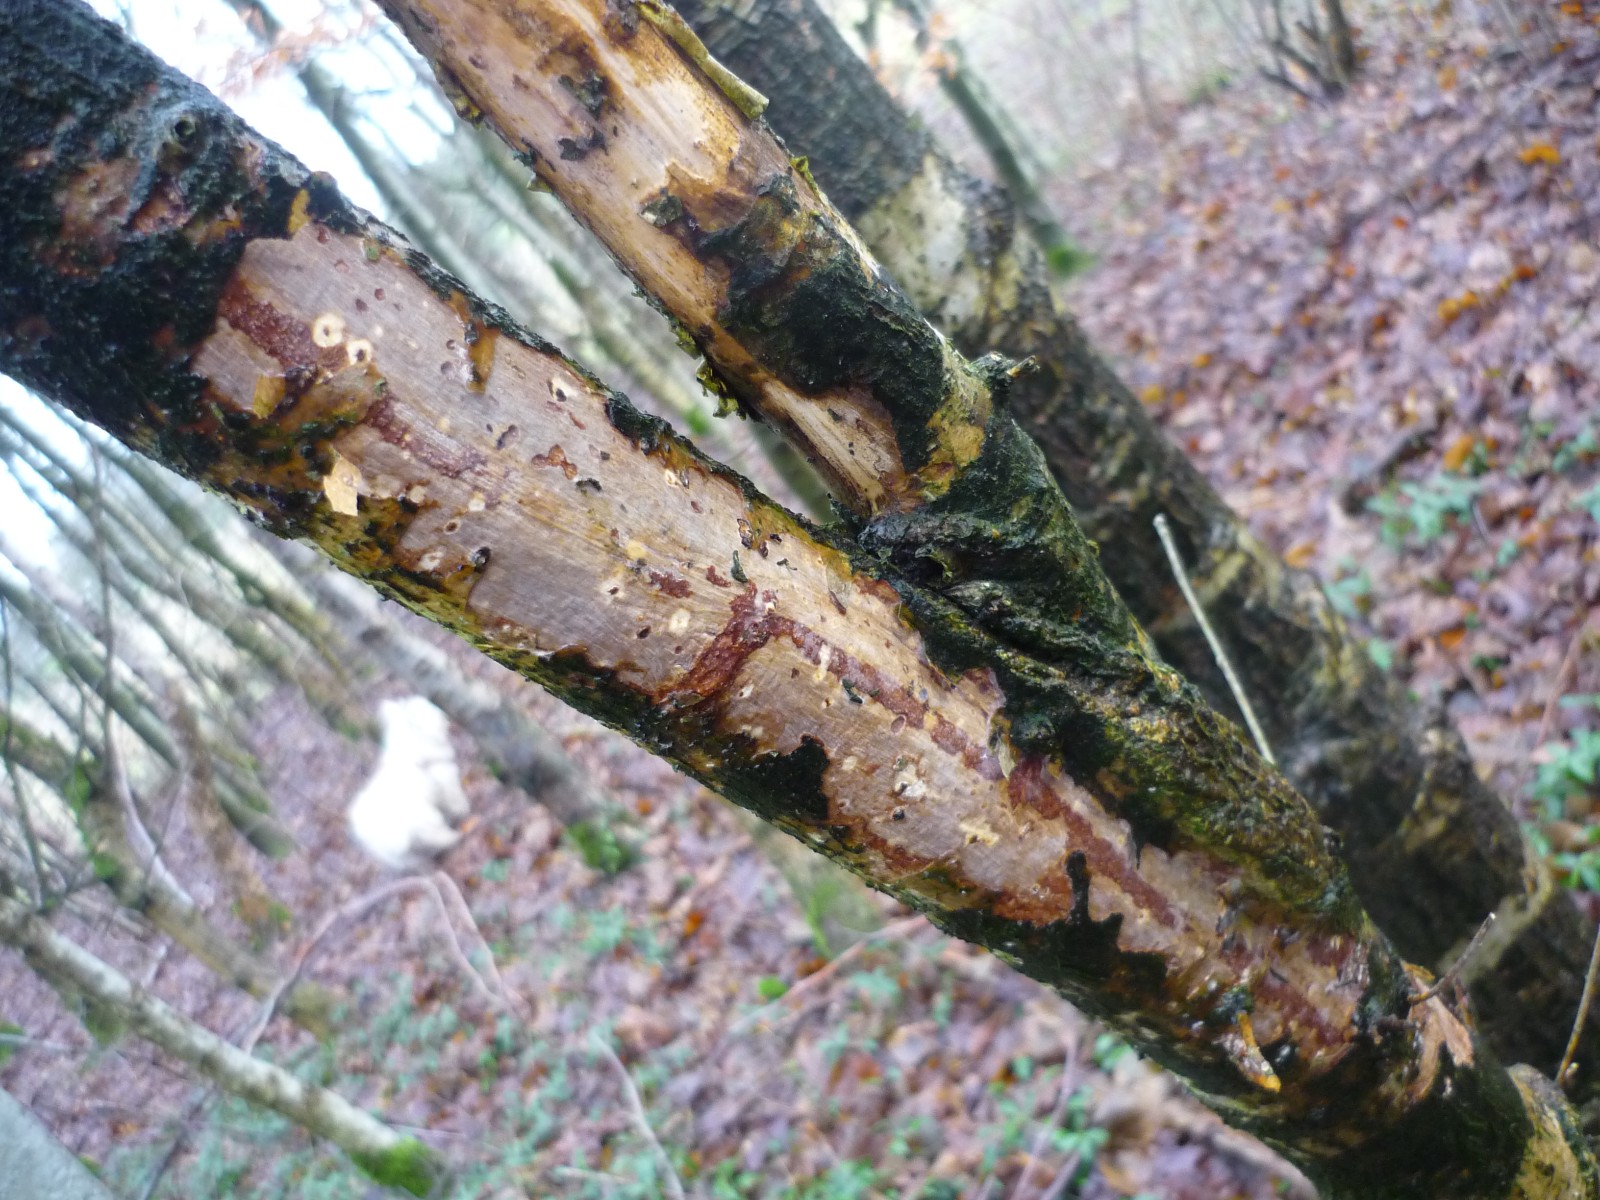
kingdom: Fungi
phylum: Basidiomycota
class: Agaricomycetes
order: Corticiales
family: Vuilleminiaceae
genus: Vuilleminia
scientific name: Vuilleminia comedens
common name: almindelig barksprænger
